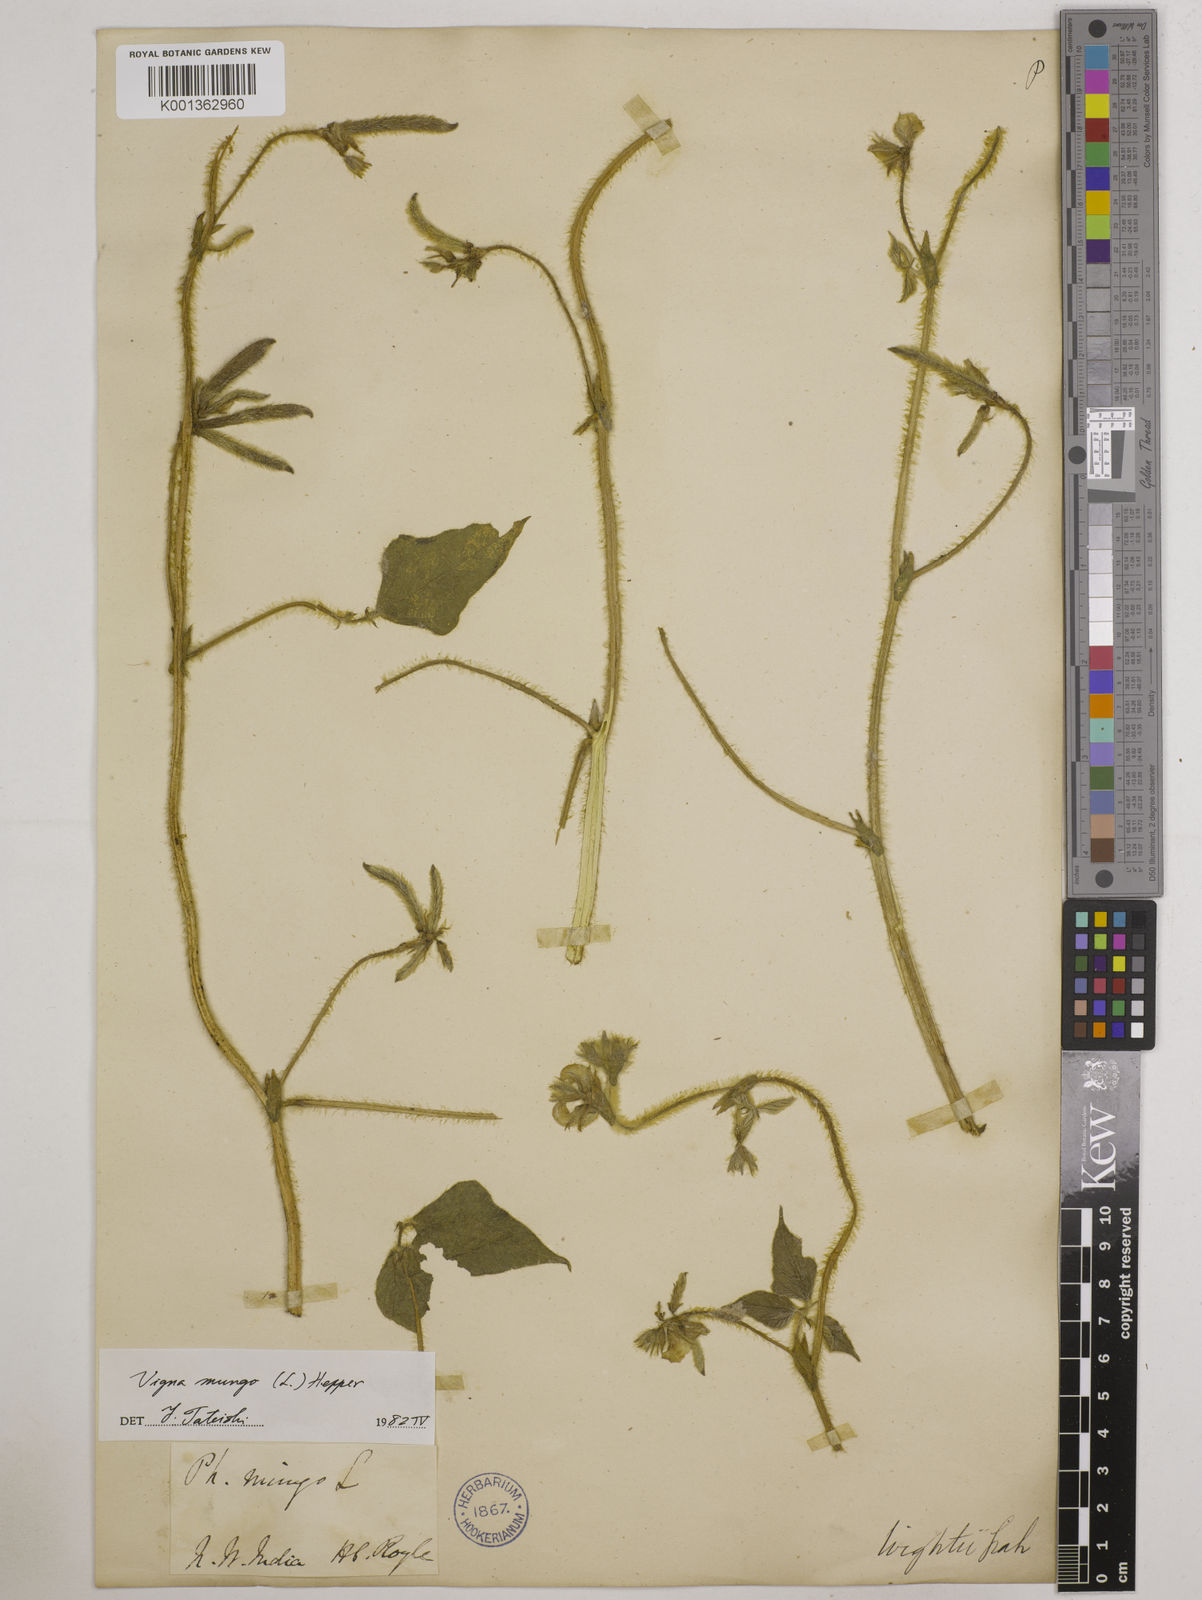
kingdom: Plantae
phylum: Tracheophyta
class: Magnoliopsida
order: Fabales
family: Fabaceae
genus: Vigna
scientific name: Vigna mungo
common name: Black gram
